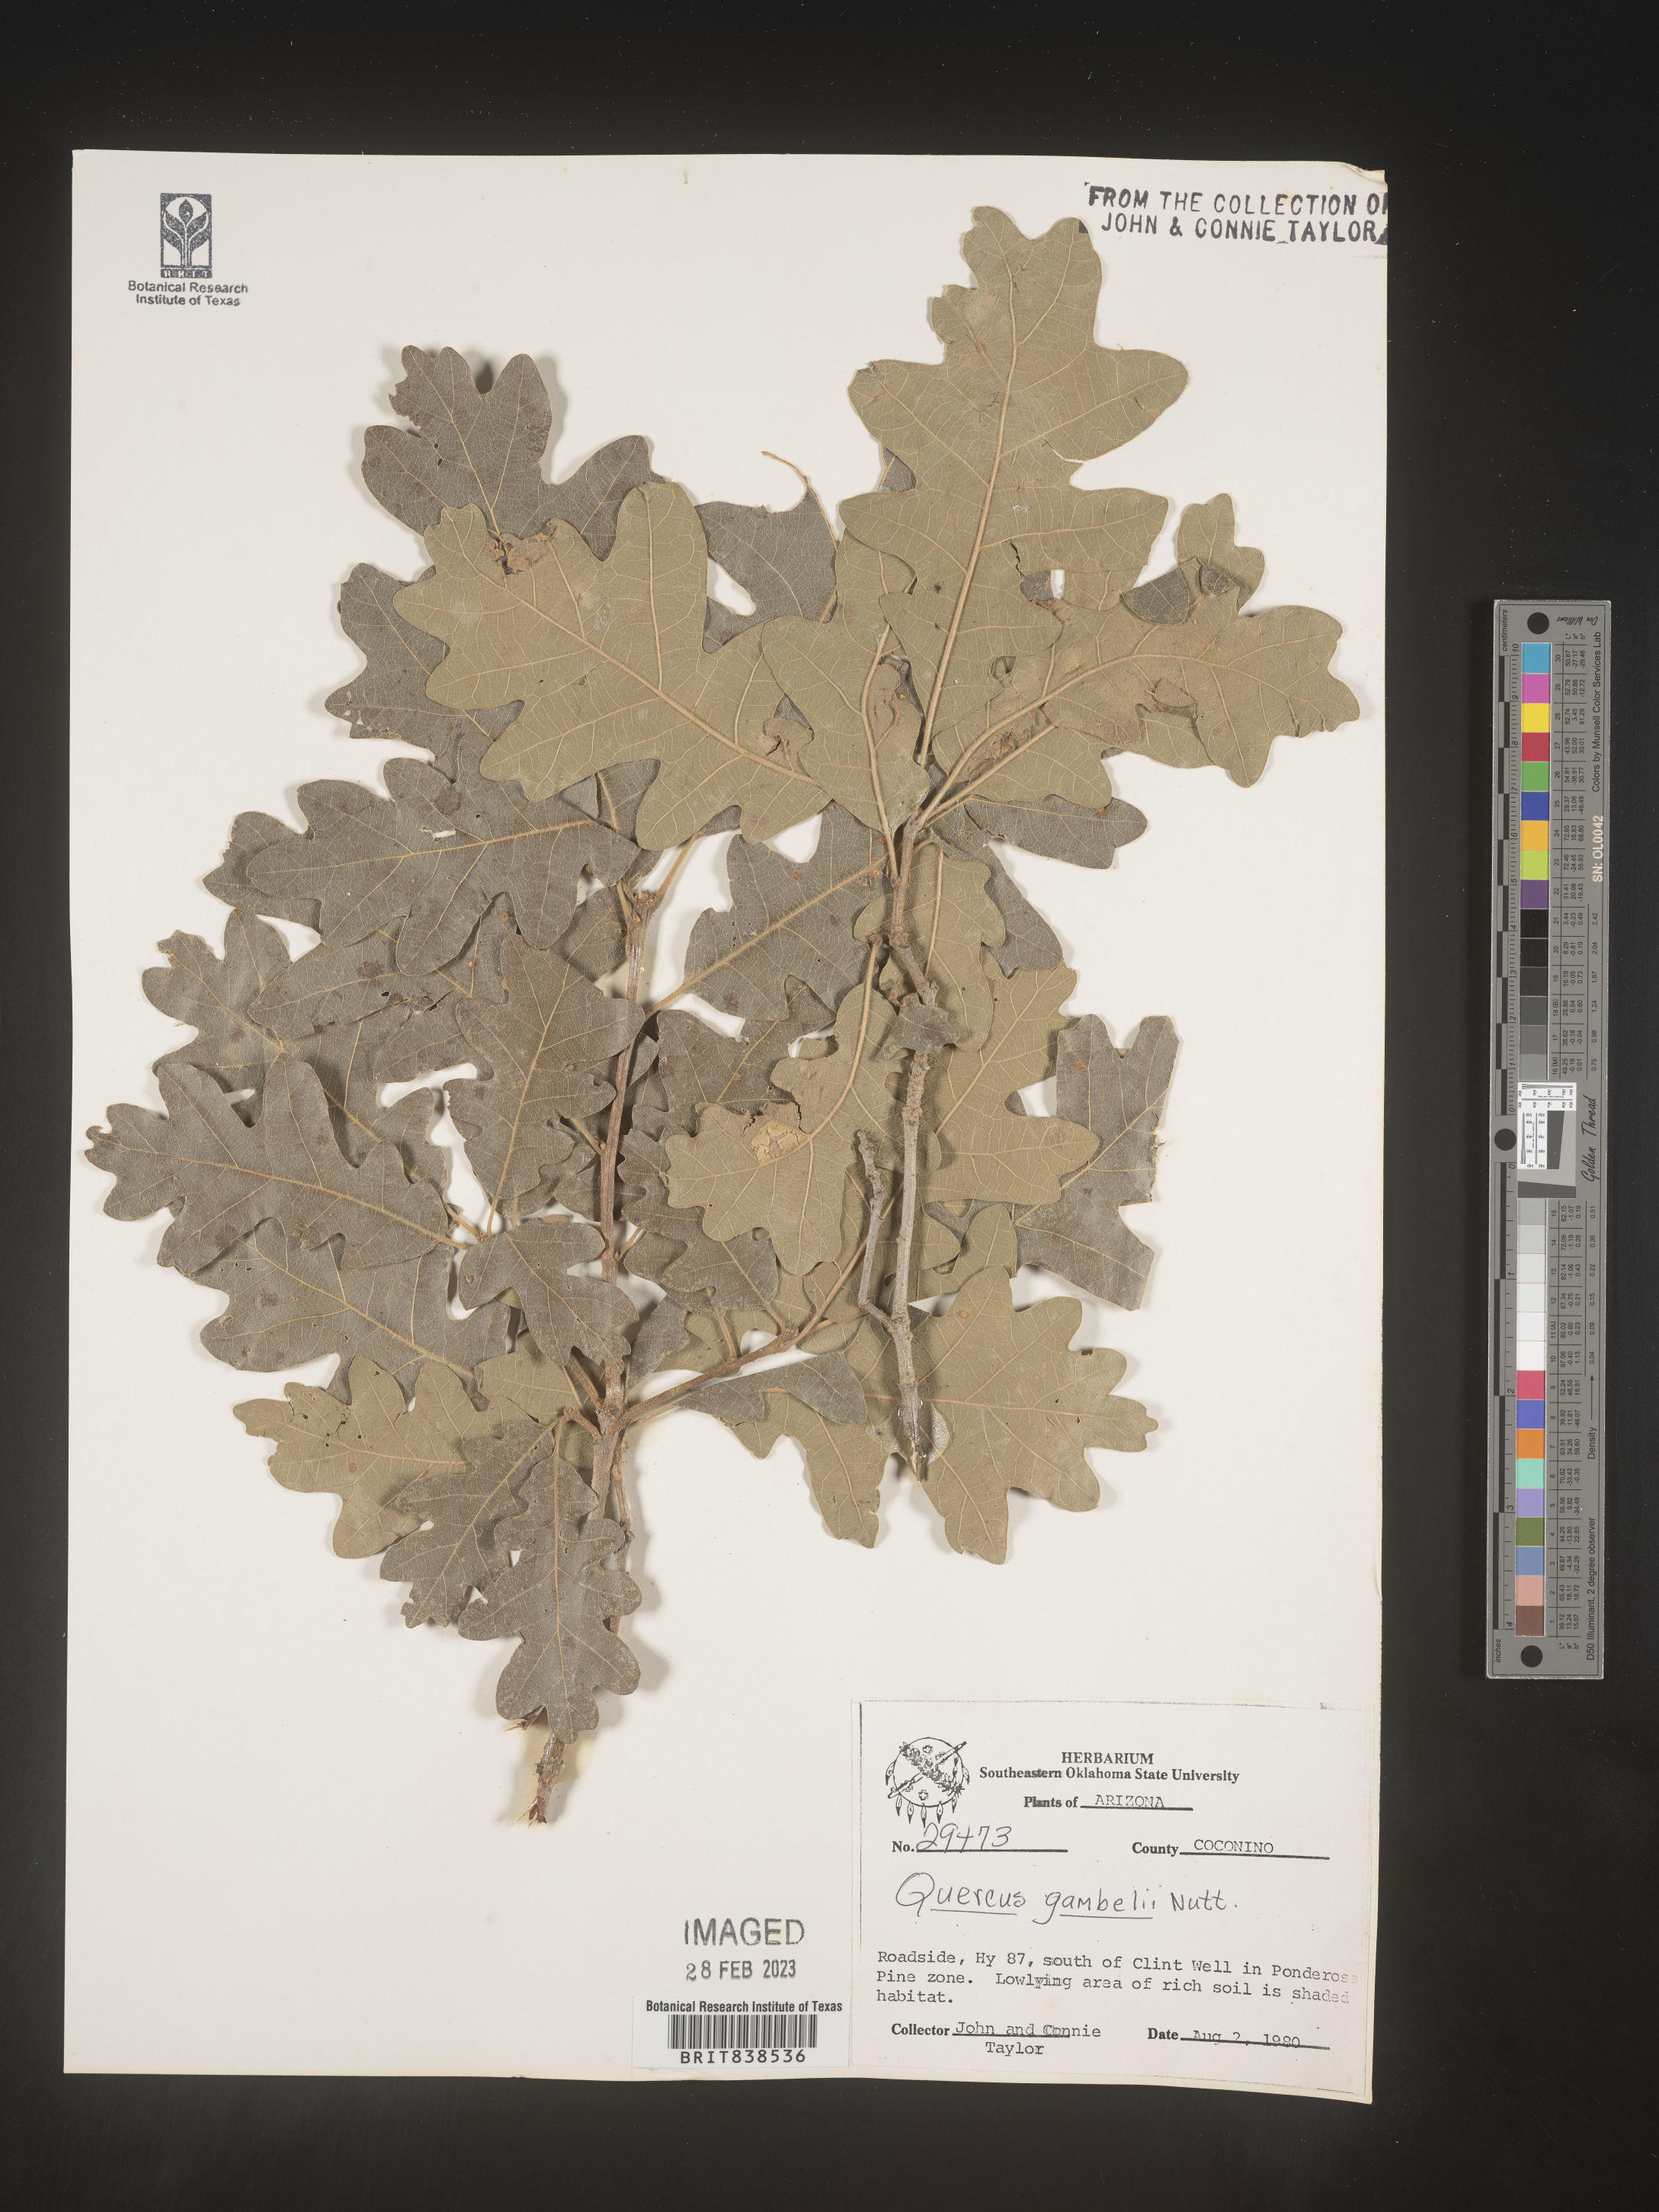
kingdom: Plantae
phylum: Tracheophyta
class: Magnoliopsida
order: Fagales
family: Fagaceae
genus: Quercus
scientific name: Quercus gambelii
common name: Gambel oak
